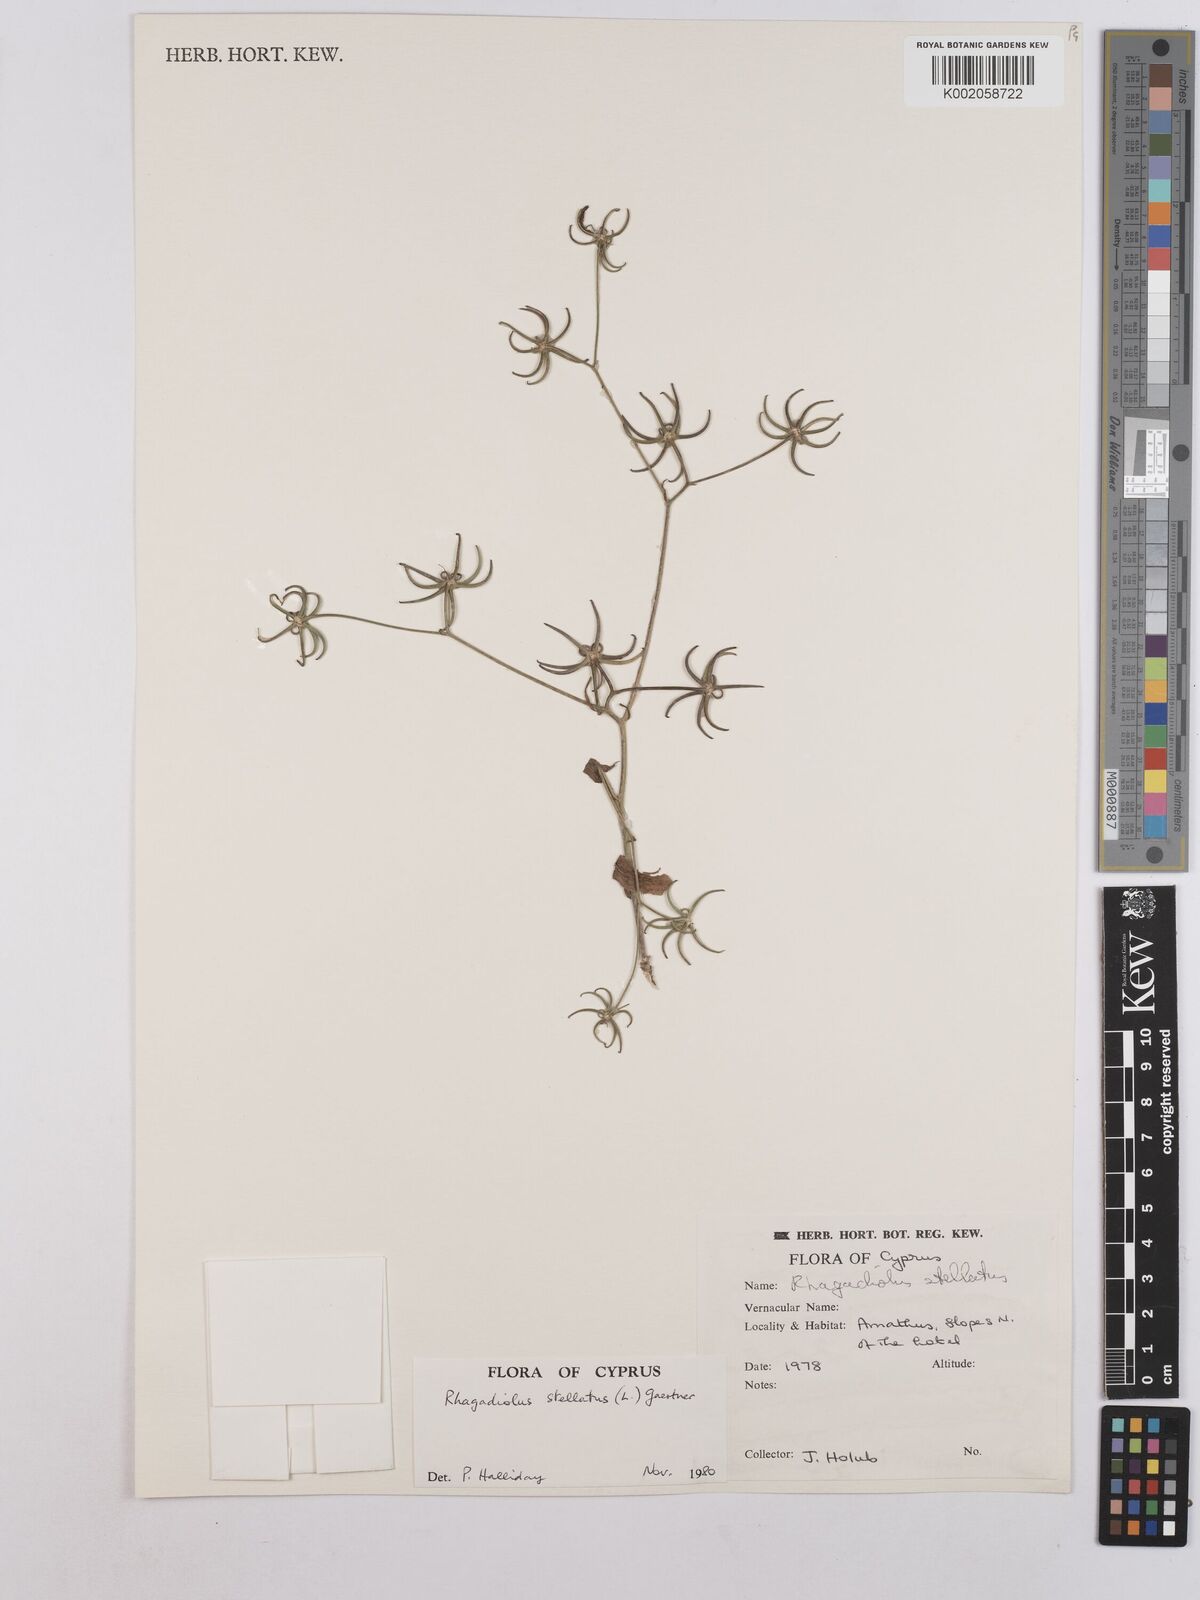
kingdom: Plantae
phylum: Tracheophyta
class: Magnoliopsida
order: Asterales
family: Asteraceae
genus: Rhagadiolus
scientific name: Rhagadiolus stellatus
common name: Star hawkbit
